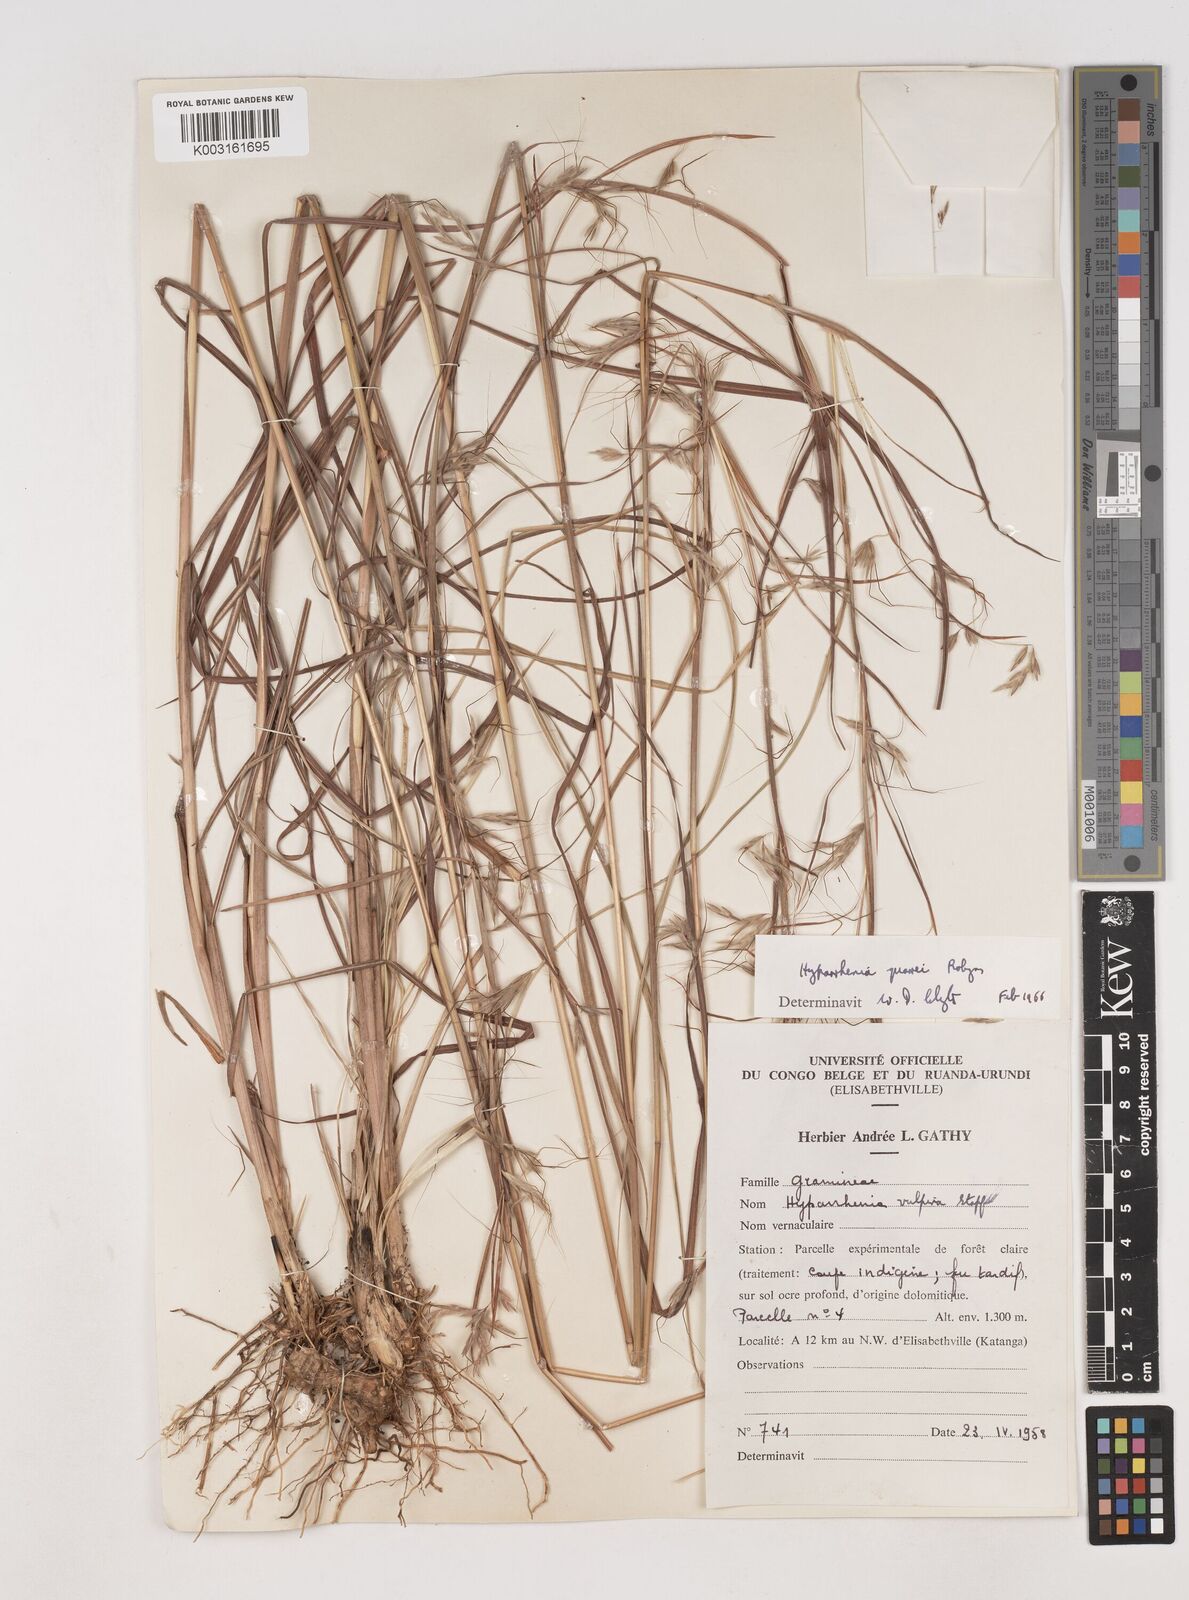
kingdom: Plantae
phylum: Tracheophyta
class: Liliopsida
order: Poales
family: Poaceae
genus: Hyparrhenia
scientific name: Hyparrhenia quarrei
